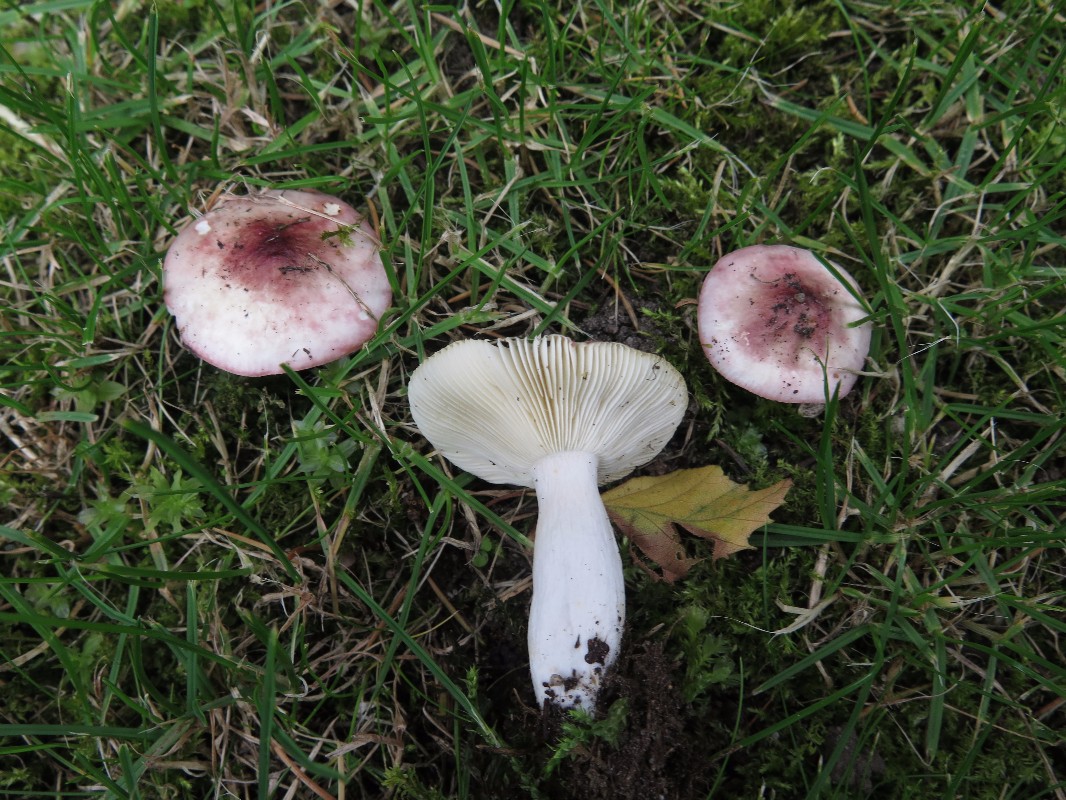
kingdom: Fungi
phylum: Basidiomycota
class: Agaricomycetes
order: Russulales
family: Russulaceae
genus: Russula
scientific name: Russula depallens
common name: falmende skørhat
